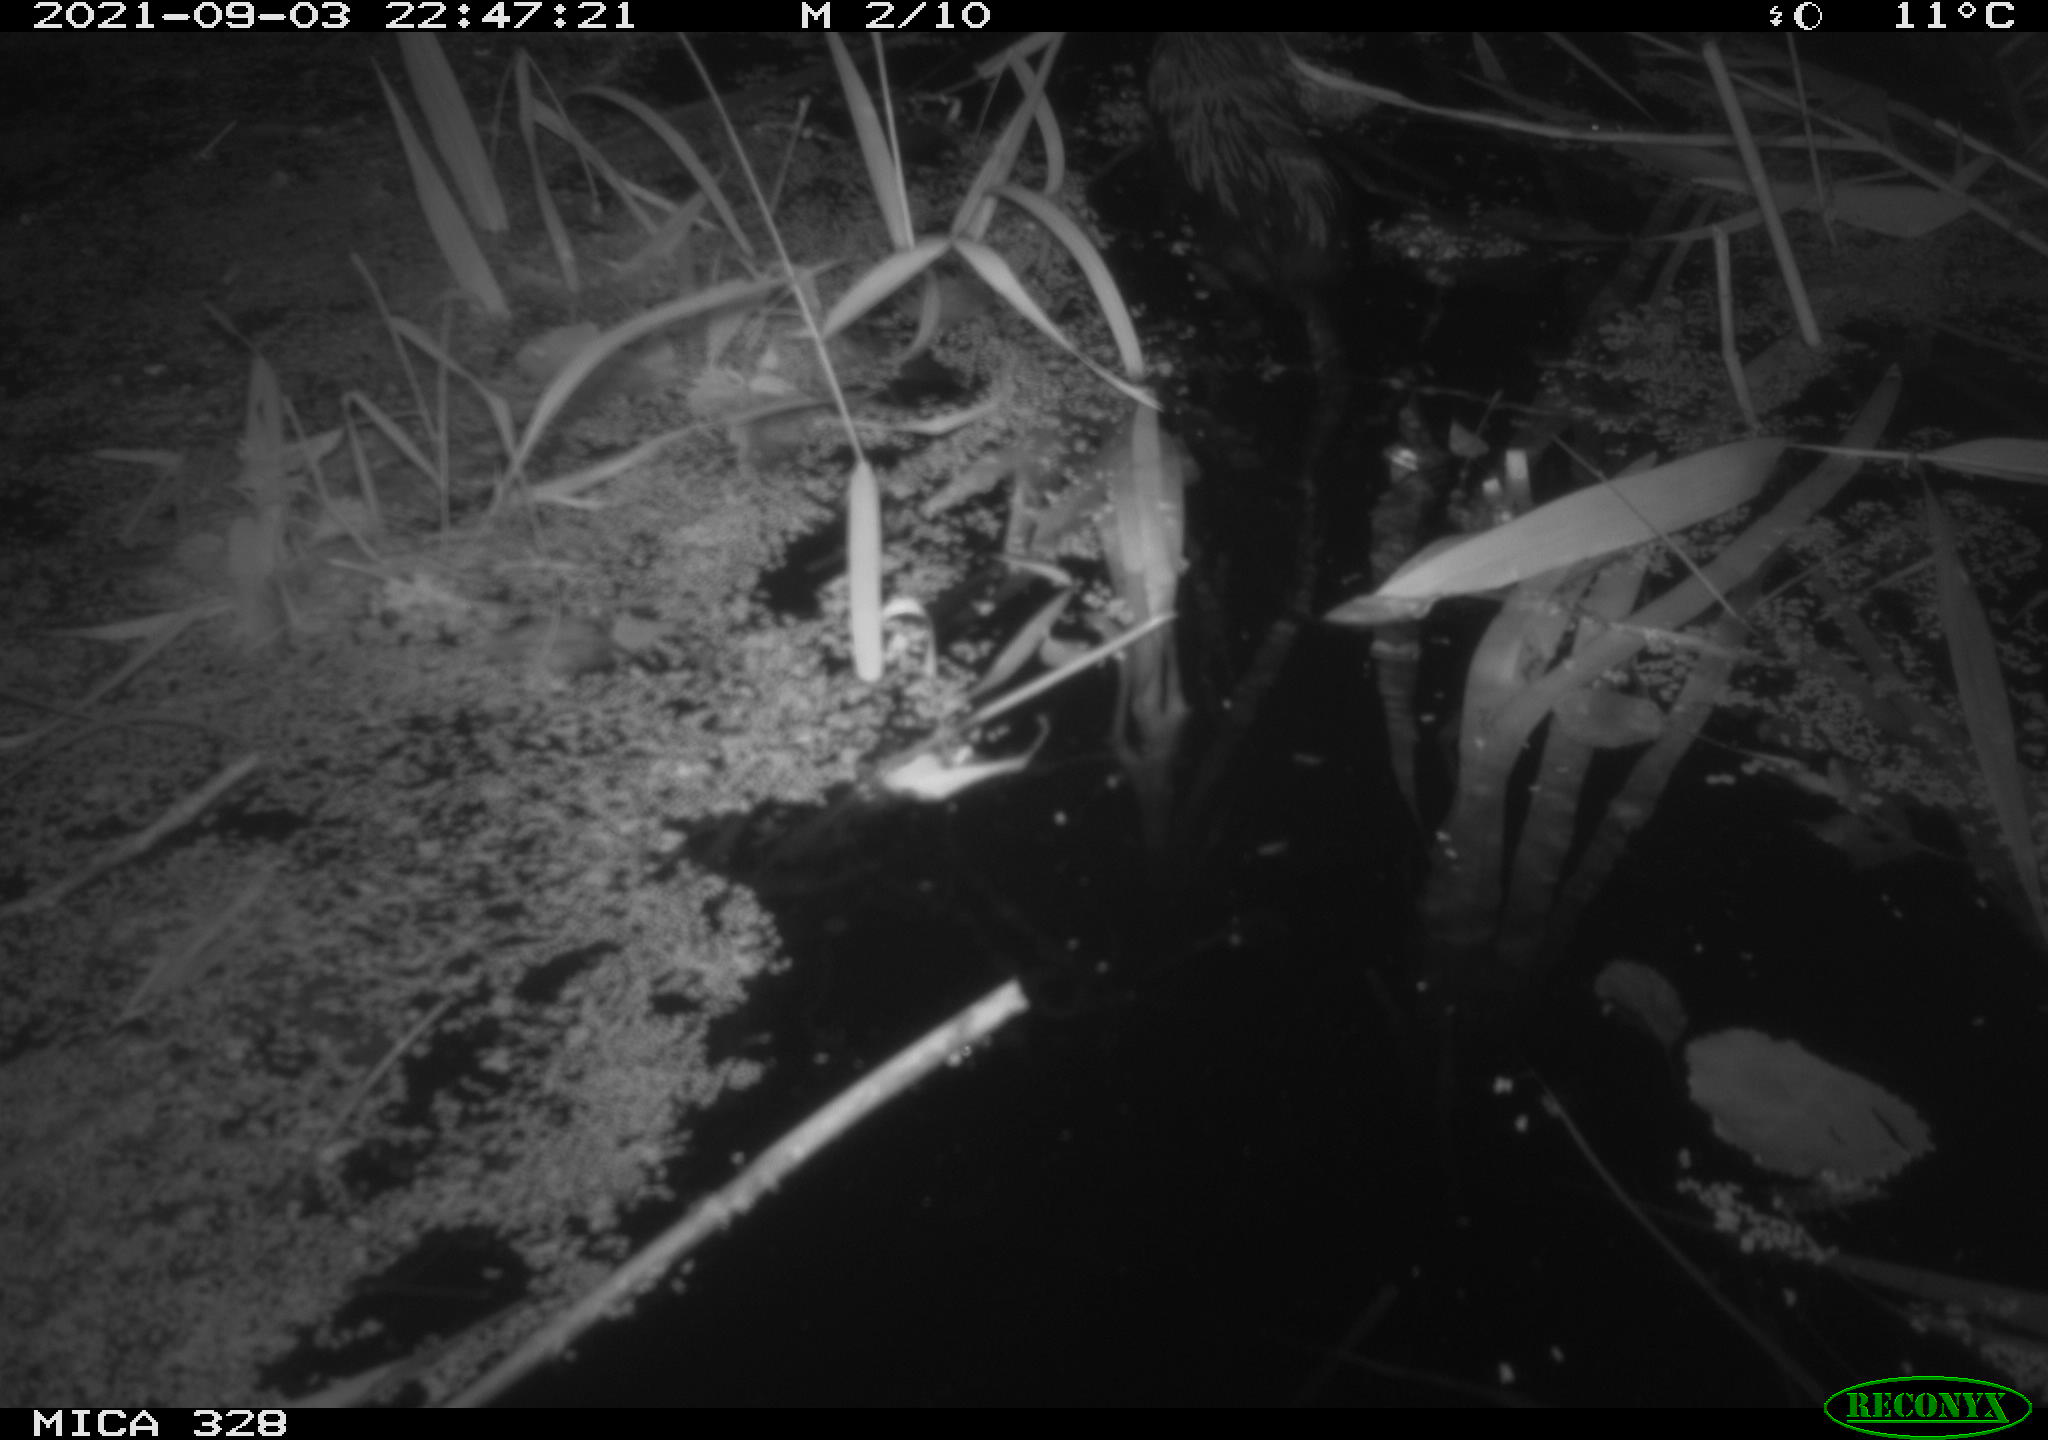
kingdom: Animalia
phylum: Chordata
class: Mammalia
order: Rodentia
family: Cricetidae
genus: Ondatra
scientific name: Ondatra zibethicus
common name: Muskrat
